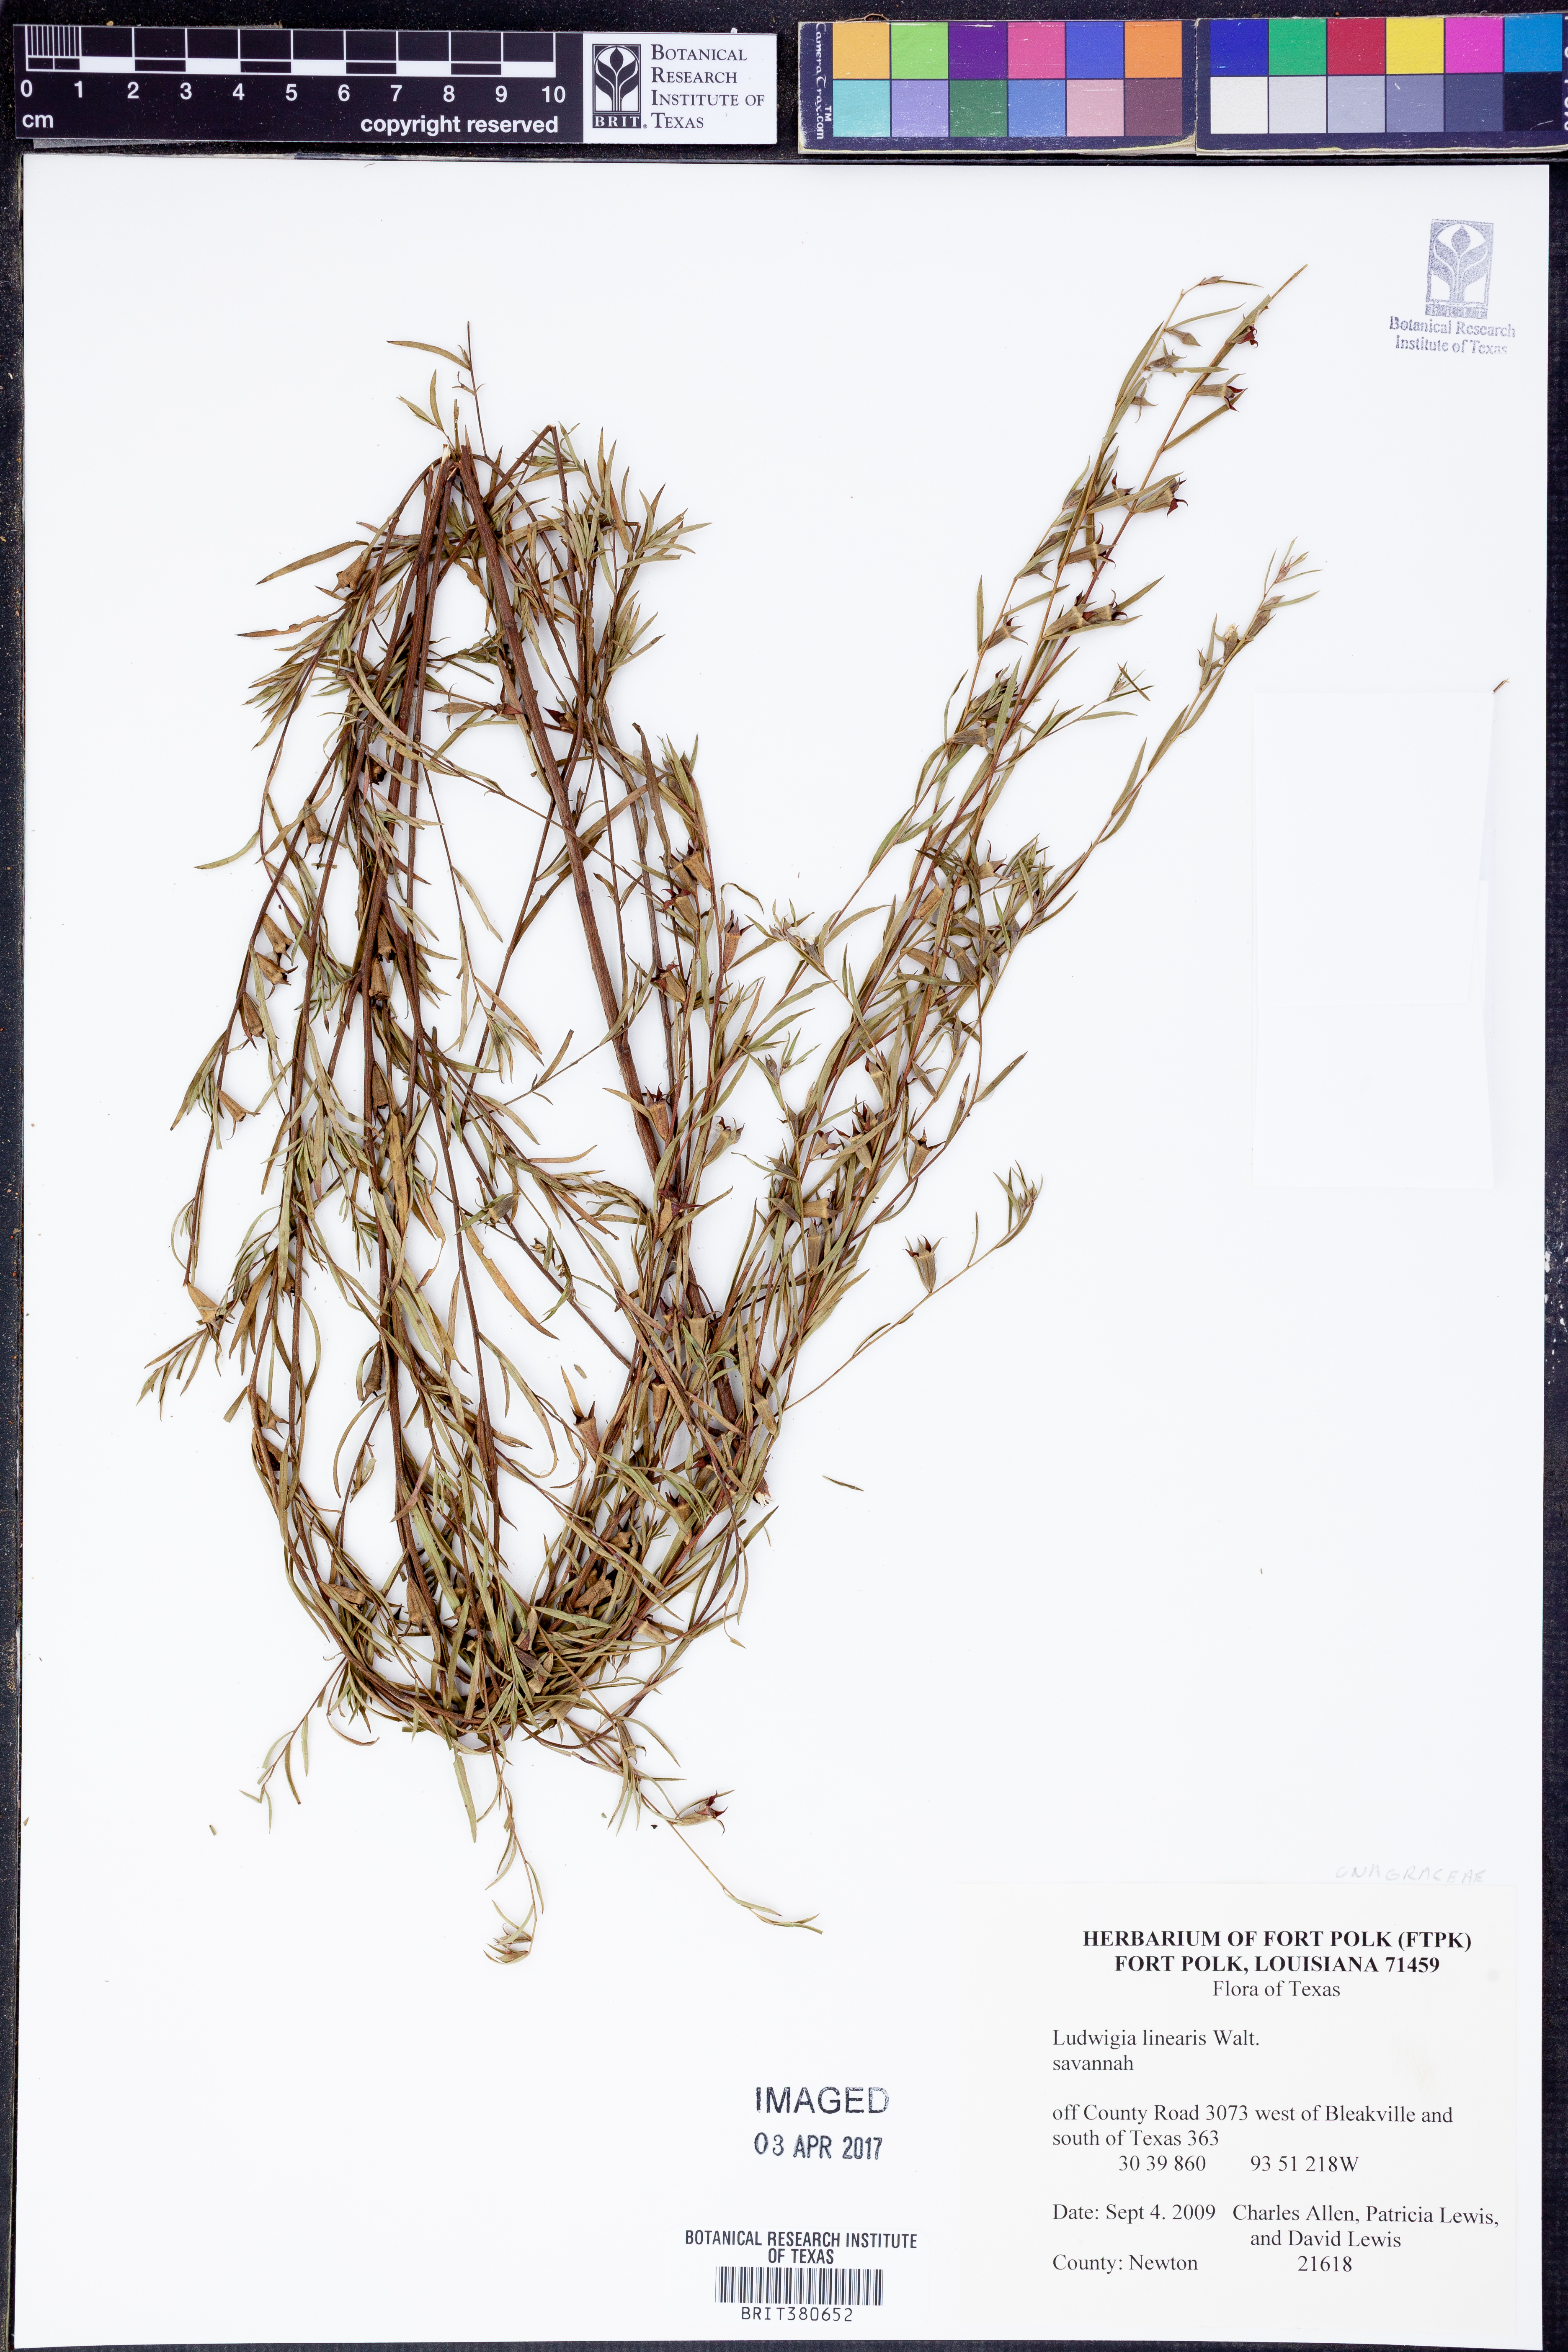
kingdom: Plantae
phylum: Tracheophyta
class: Magnoliopsida
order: Myrtales
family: Onagraceae
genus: Ludwigia
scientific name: Ludwigia linearis
